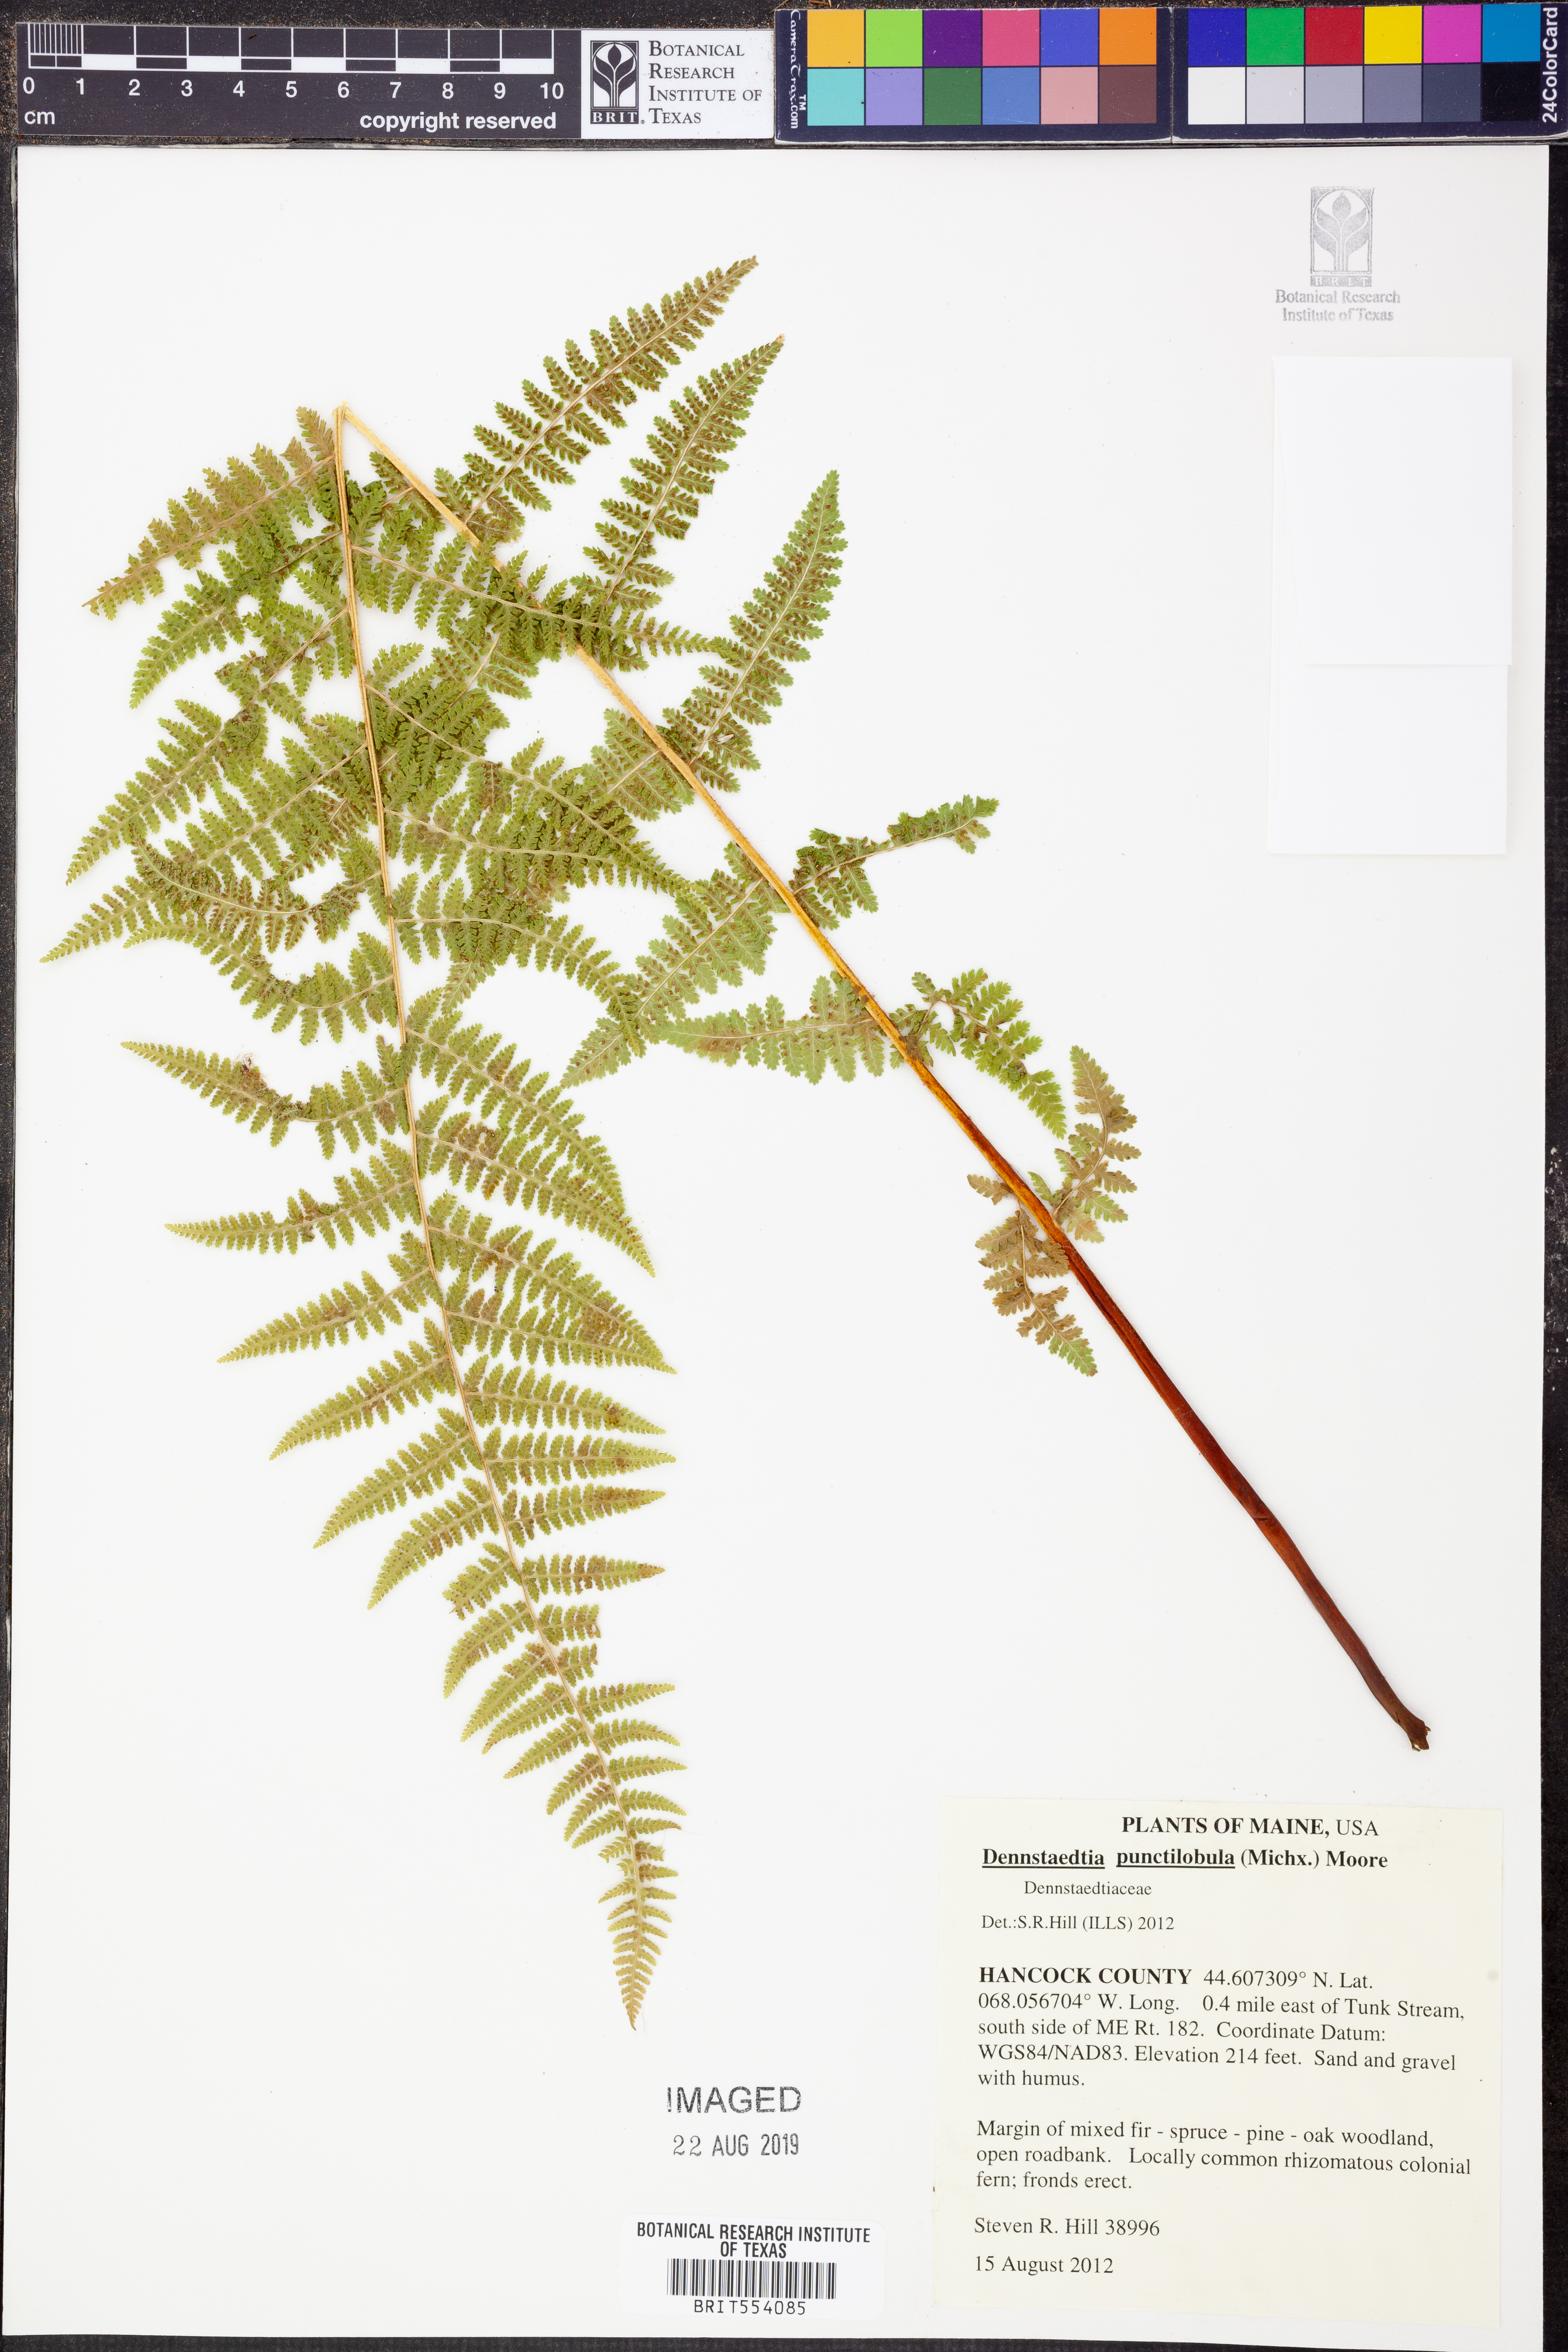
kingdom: Plantae
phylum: Tracheophyta
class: Polypodiopsida
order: Polypodiales
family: Dennstaedtiaceae
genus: Sitobolium
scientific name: Sitobolium punctilobum
